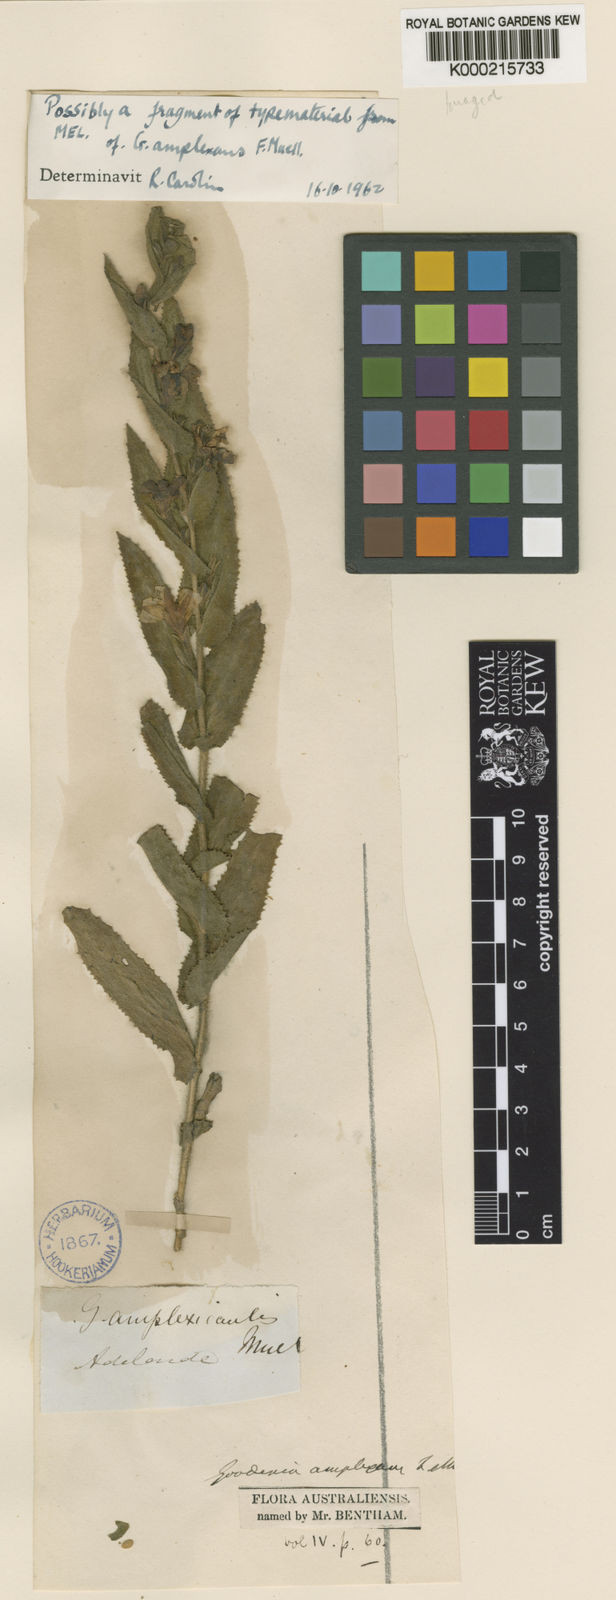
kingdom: Plantae
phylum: Tracheophyta
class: Magnoliopsida
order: Asterales
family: Goodeniaceae
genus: Goodenia
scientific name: Goodenia amplexans
